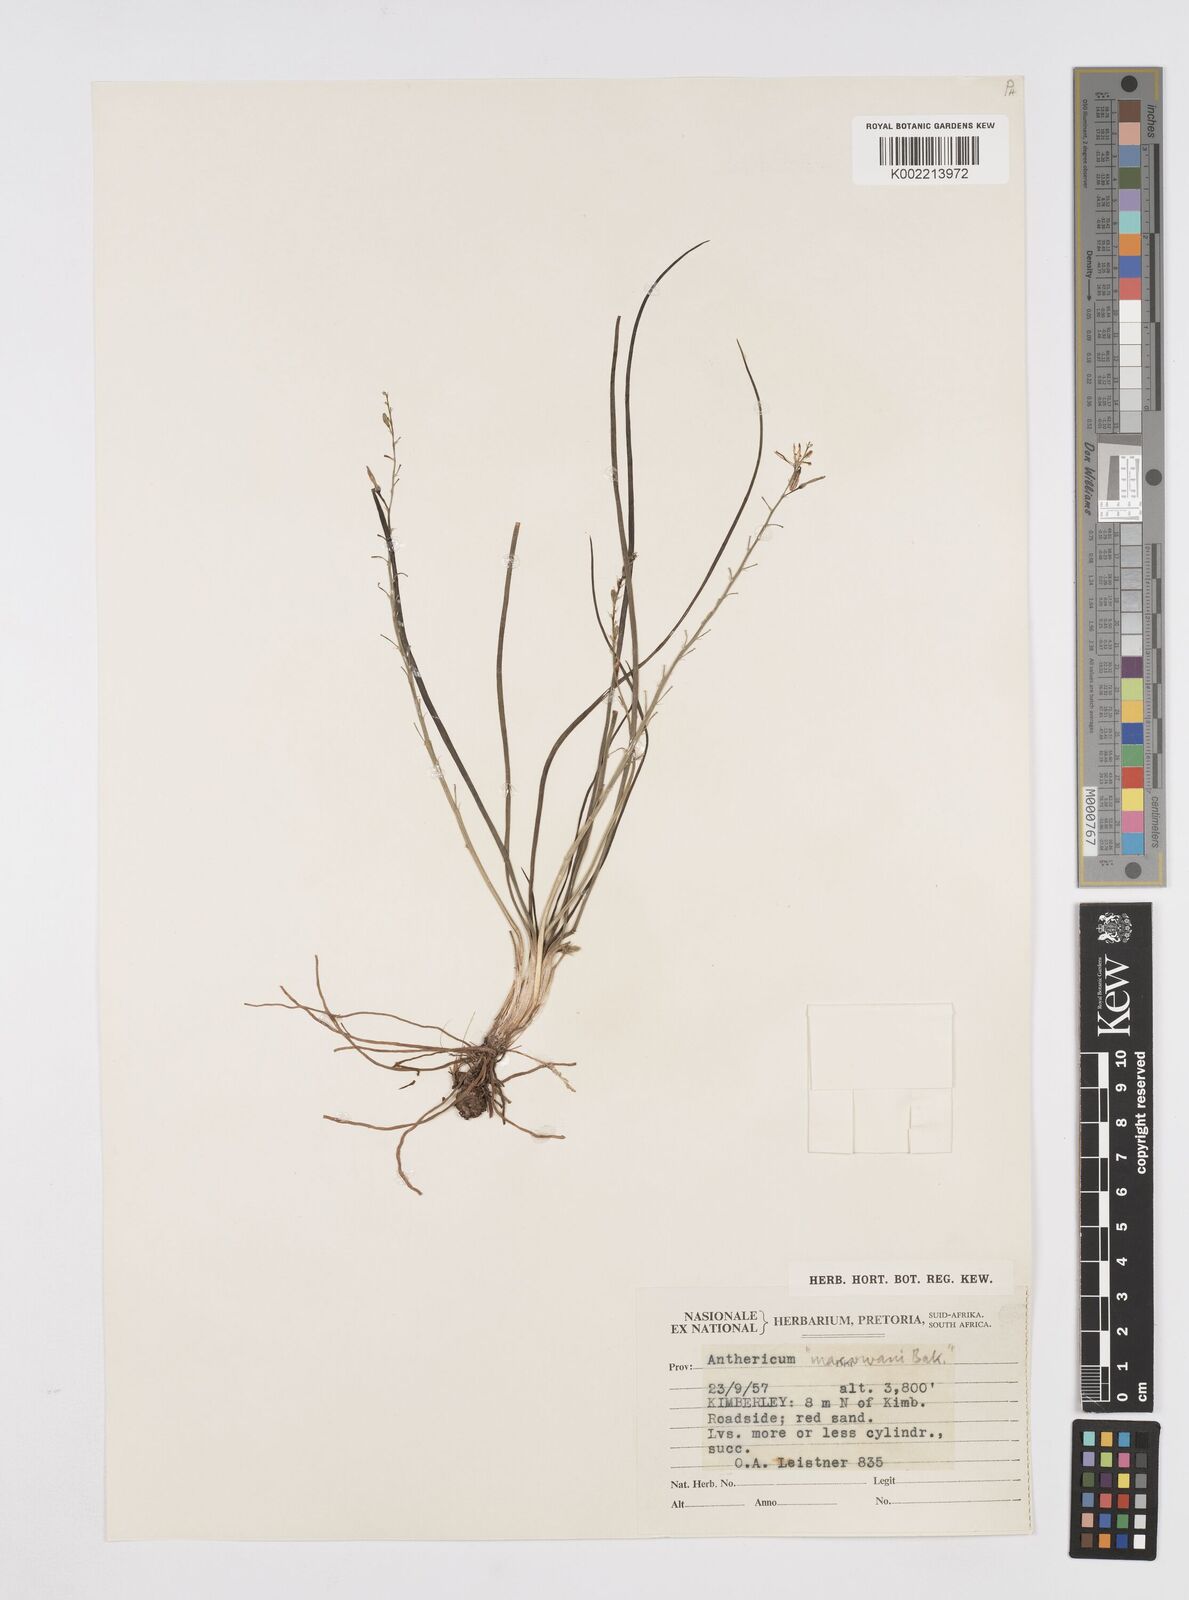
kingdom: Plantae
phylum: Tracheophyta
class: Liliopsida
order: Asparagales
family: Asphodelaceae
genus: Trachyandra
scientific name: Trachyandra asperata
